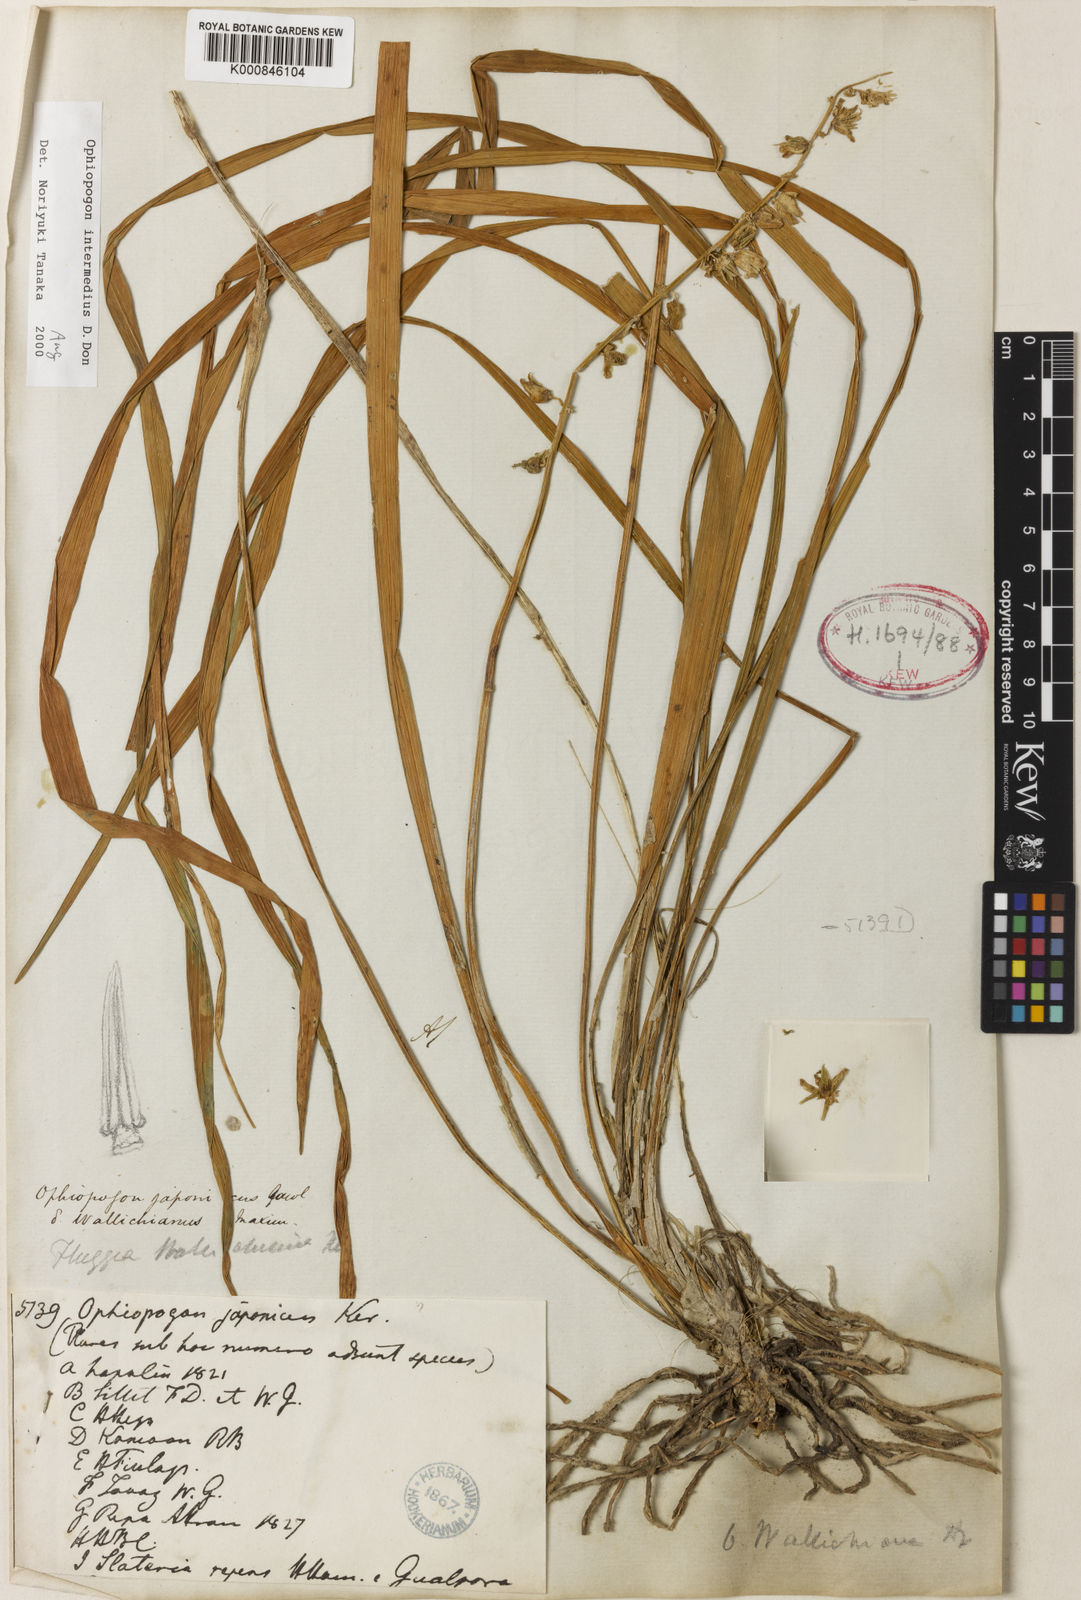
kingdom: Plantae
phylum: Tracheophyta
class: Liliopsida
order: Asparagales
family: Asparagaceae
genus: Ophiopogon
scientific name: Ophiopogon
